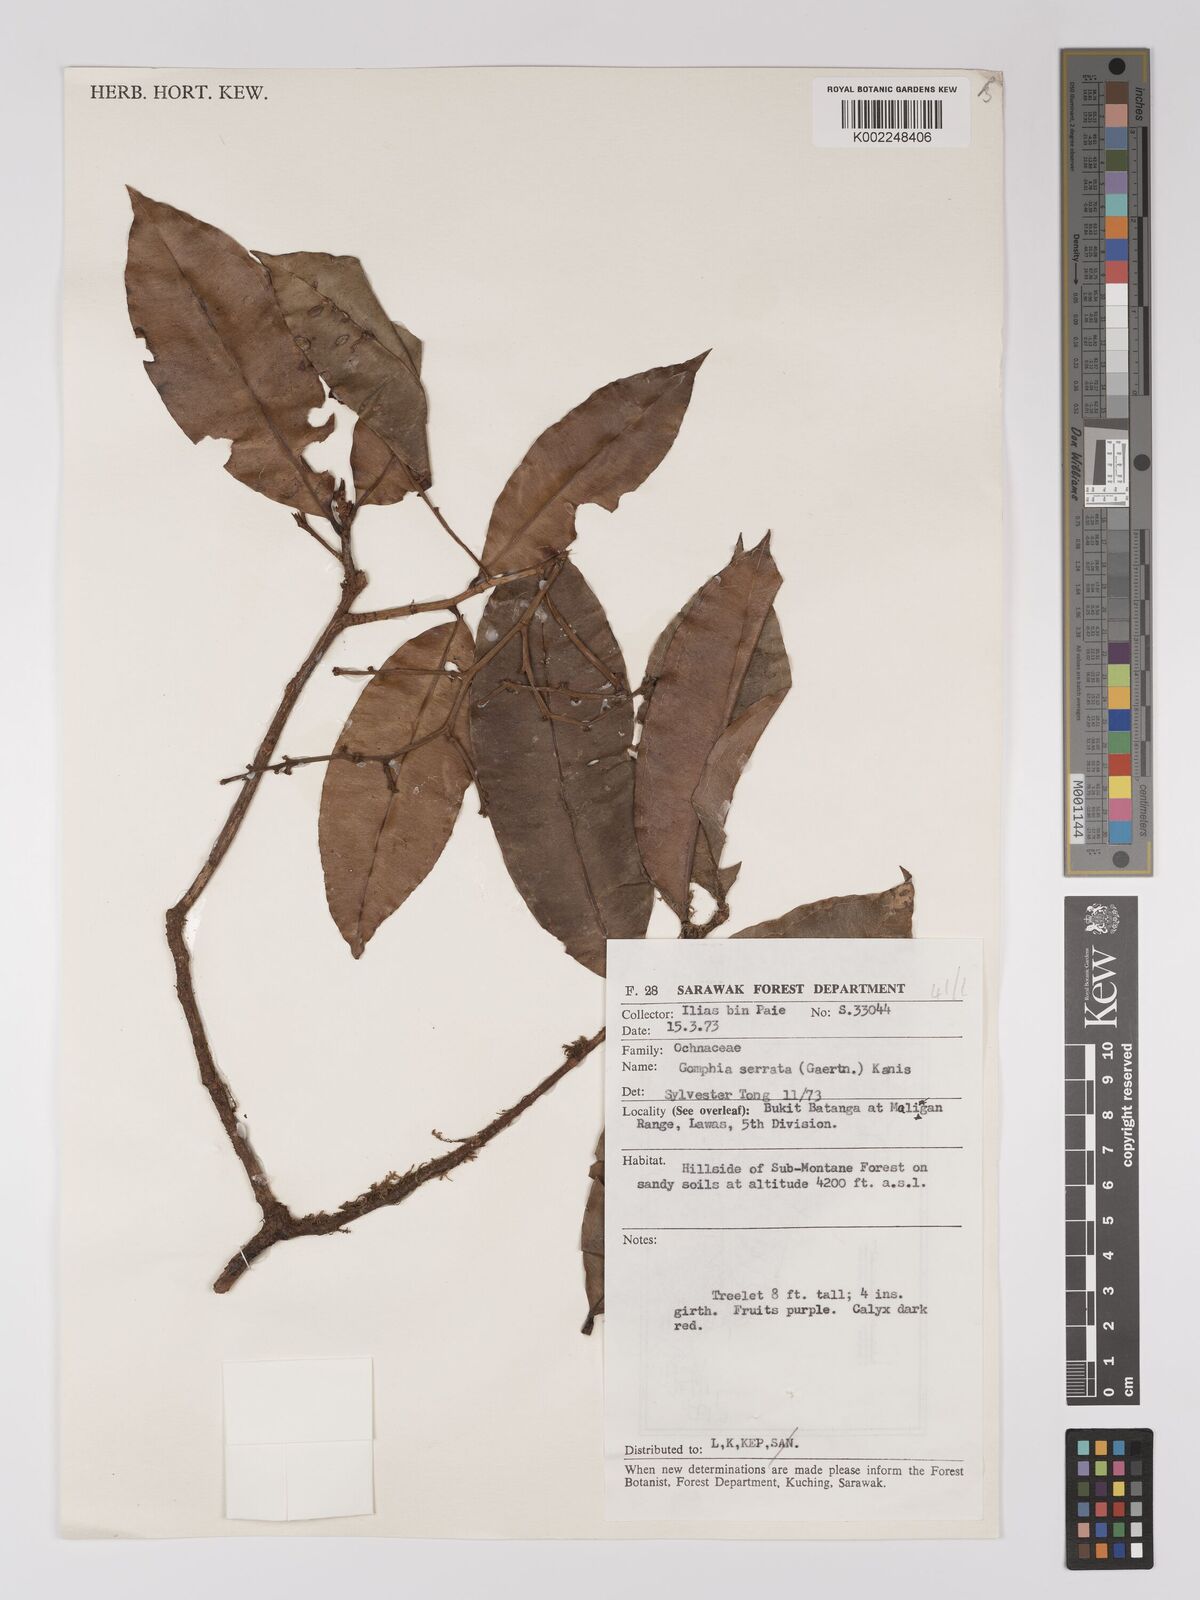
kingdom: Plantae
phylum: Tracheophyta
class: Magnoliopsida
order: Malpighiales
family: Ochnaceae
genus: Gomphia
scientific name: Gomphia serrata
